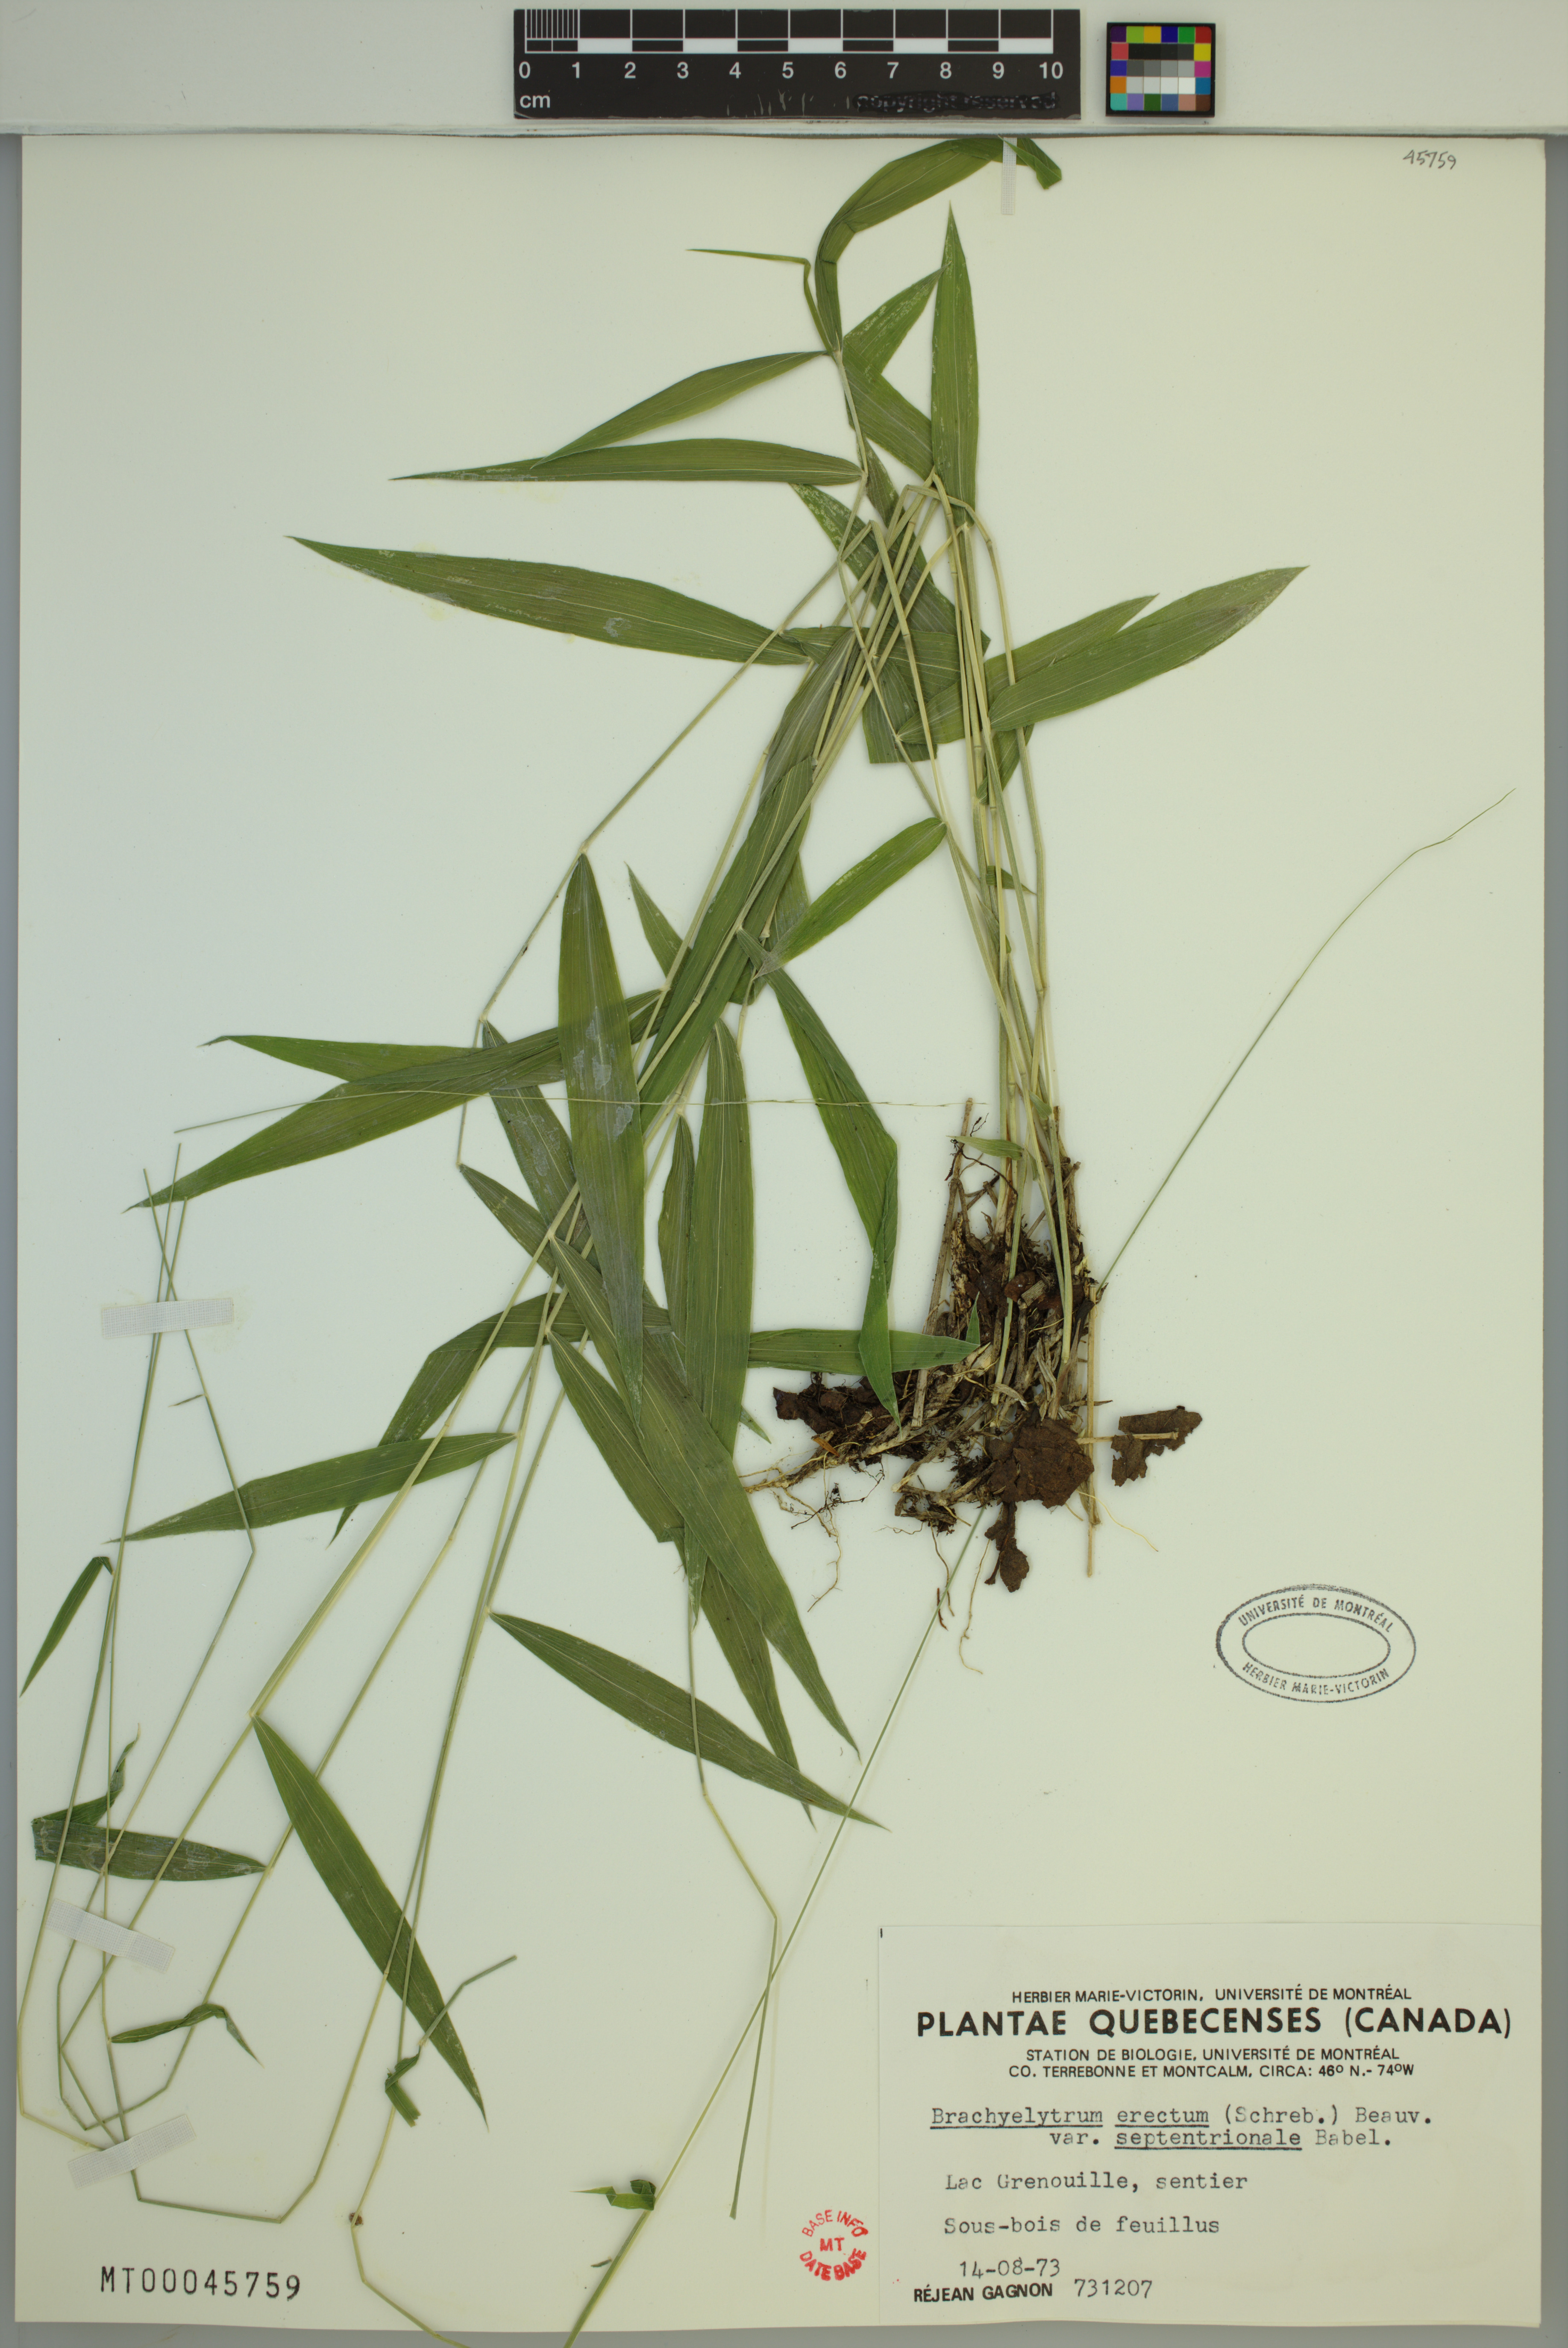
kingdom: Plantae
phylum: Tracheophyta
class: Liliopsida
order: Poales
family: Poaceae
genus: Brachyelytrum
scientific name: Brachyelytrum aristosum
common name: Northern shorthusk
